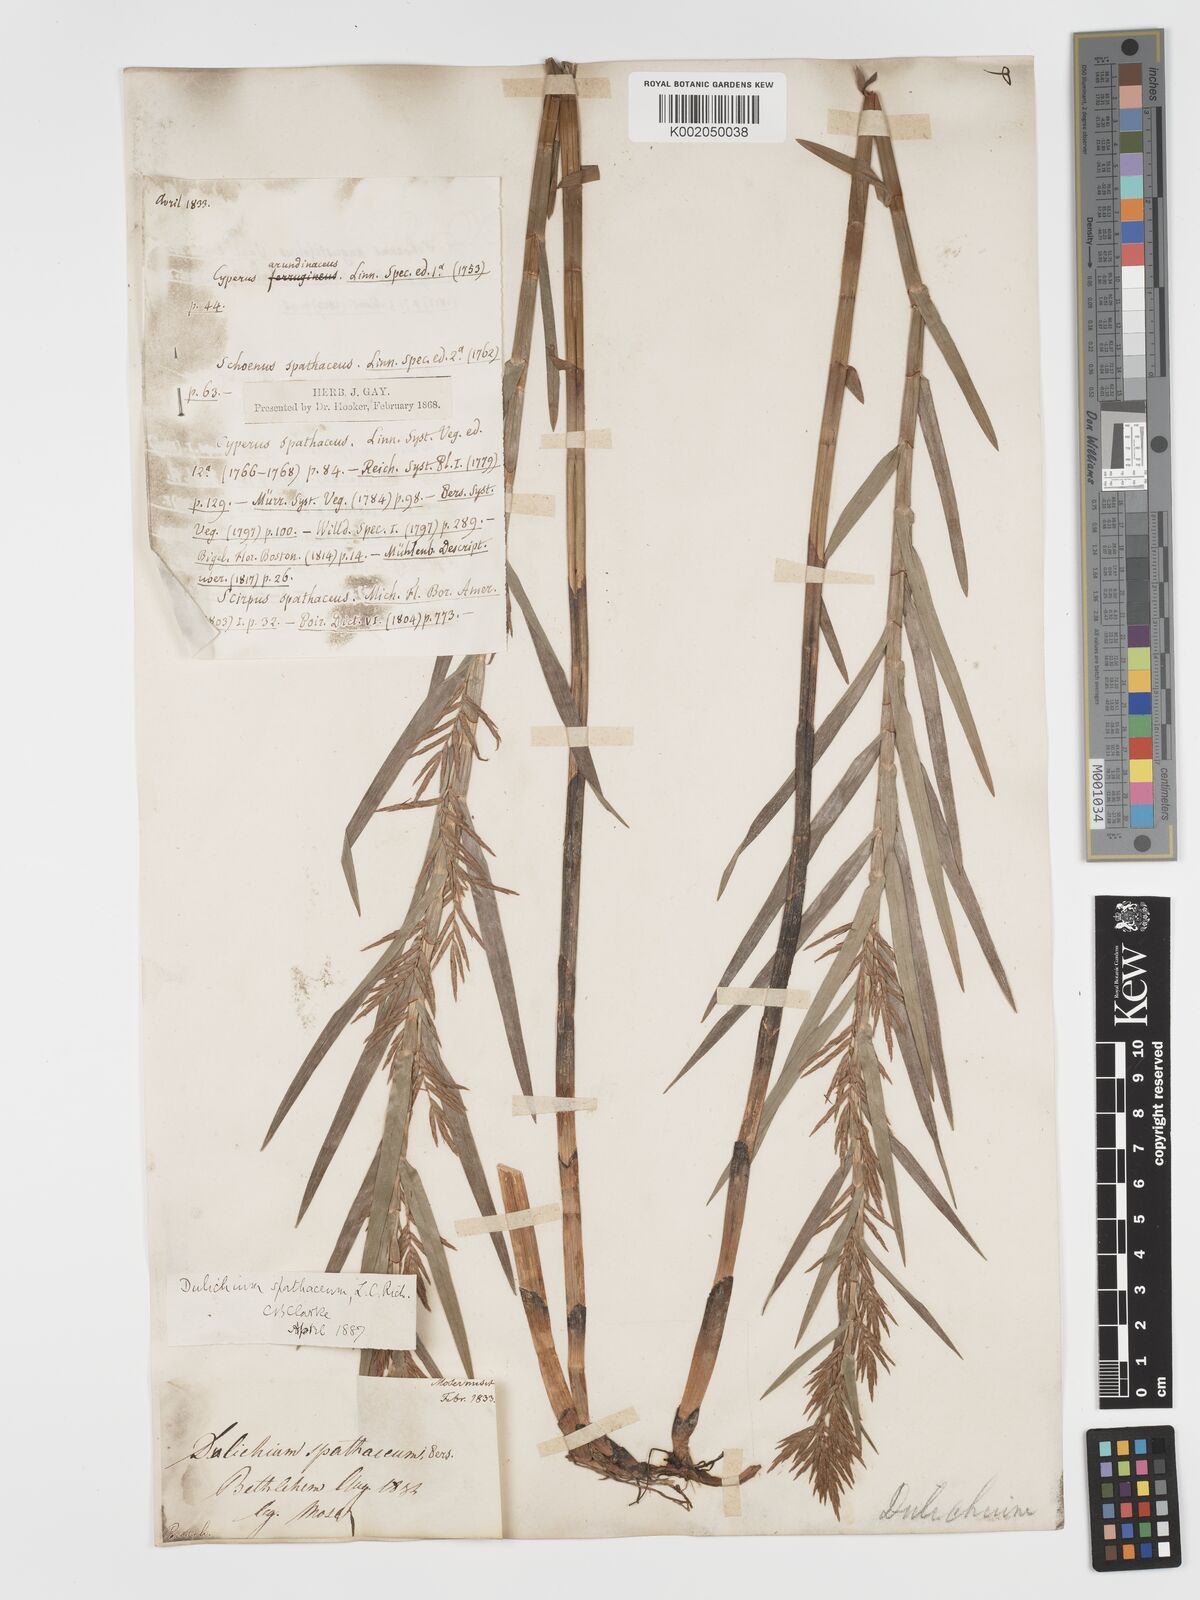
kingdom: Plantae
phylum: Tracheophyta
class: Liliopsida
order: Poales
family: Cyperaceae
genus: Dulichium
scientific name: Dulichium arundinaceum
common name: Three-way sedge
